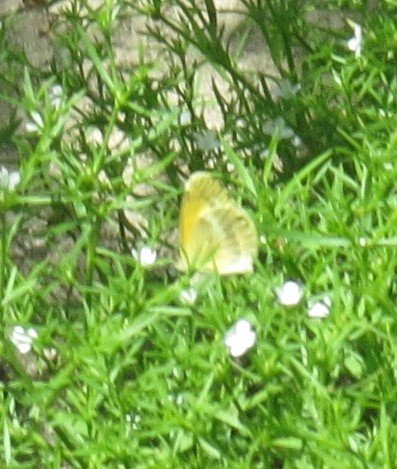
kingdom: Animalia
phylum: Arthropoda
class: Insecta
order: Lepidoptera
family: Pieridae
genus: Nathalis
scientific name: Nathalis iole
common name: Dainty Sulphur
